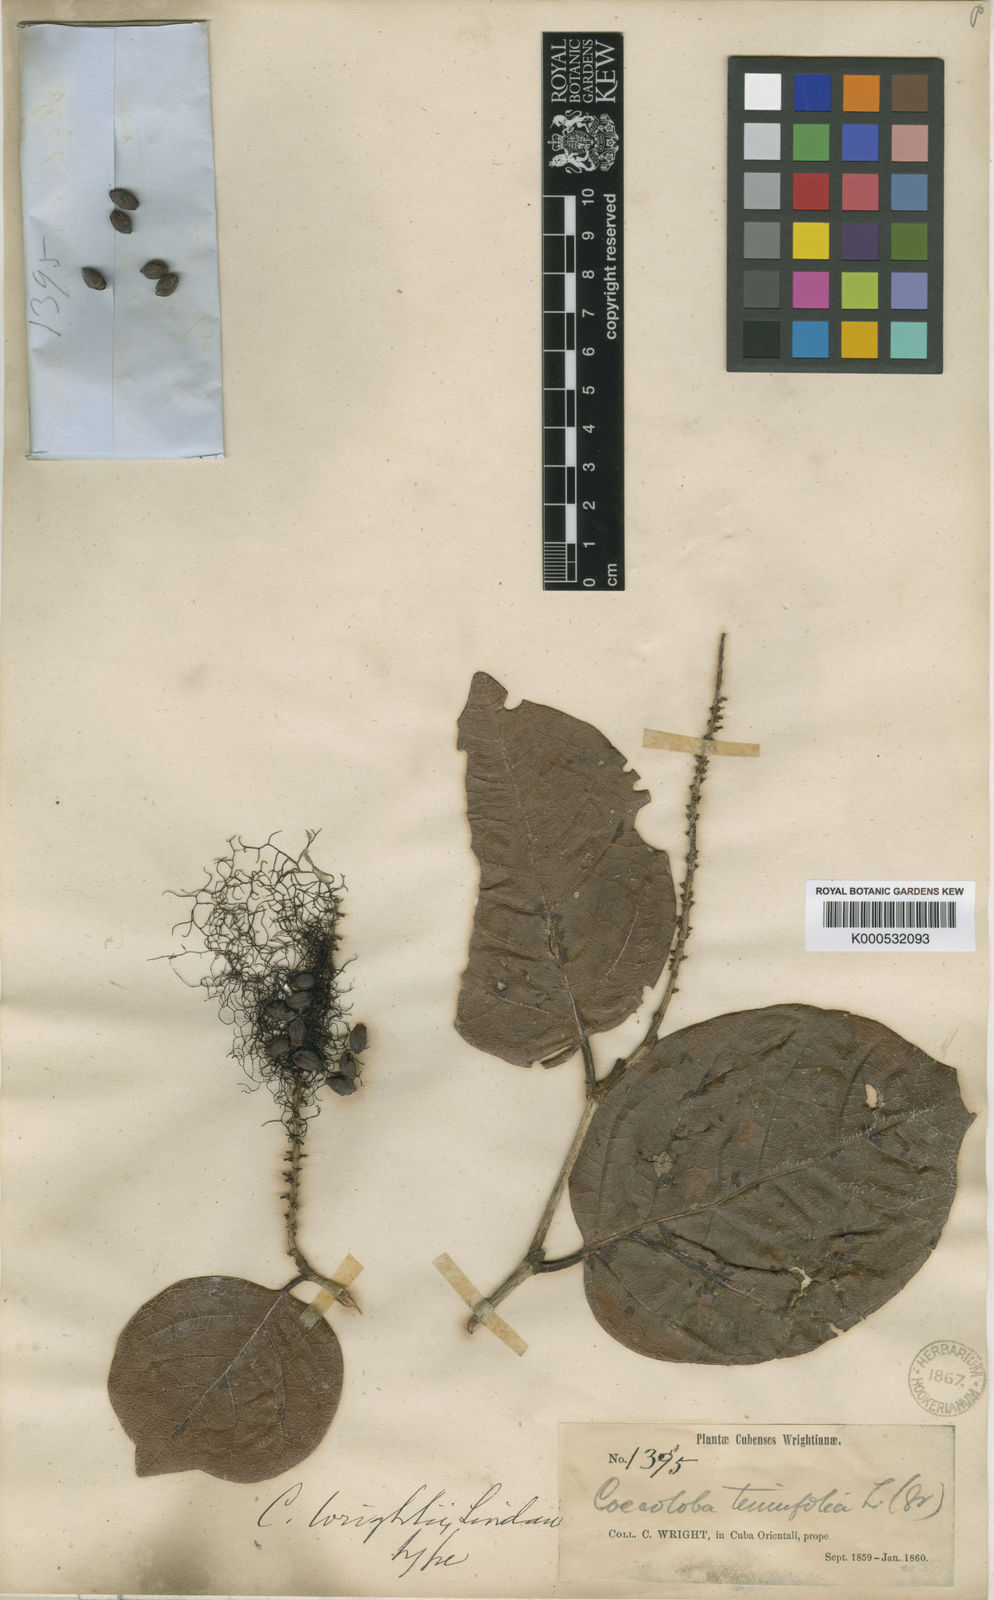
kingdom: Plantae
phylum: Tracheophyta
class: Magnoliopsida
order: Caryophyllales
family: Polygonaceae
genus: Coccoloba
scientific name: Coccoloba wrightii
